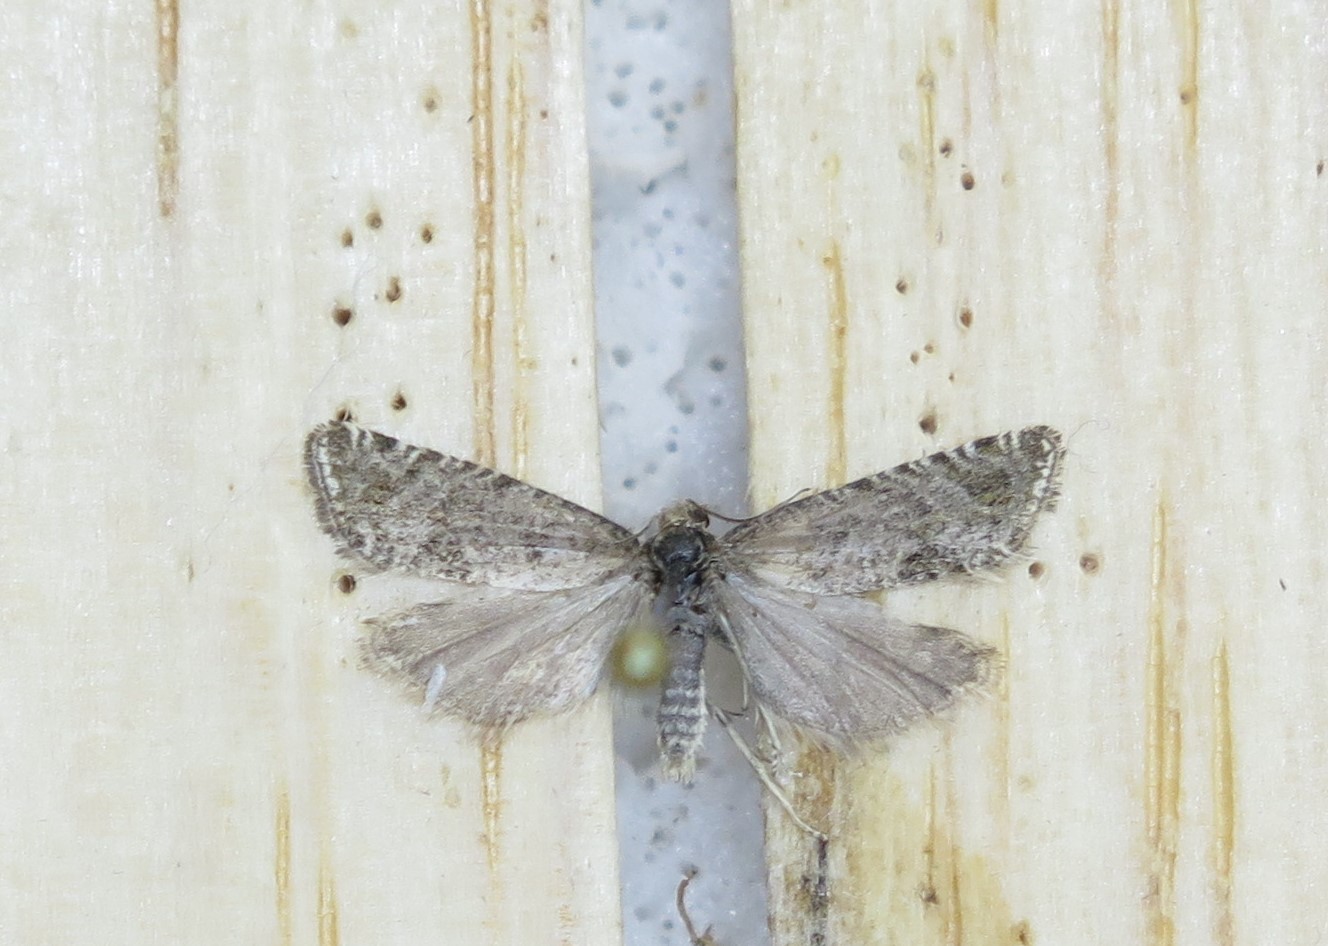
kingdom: Animalia
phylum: Arthropoda
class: Insecta
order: Lepidoptera
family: Tortricidae
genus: Eriopsela
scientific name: Eriopsela quadrana
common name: Four-spot bell
